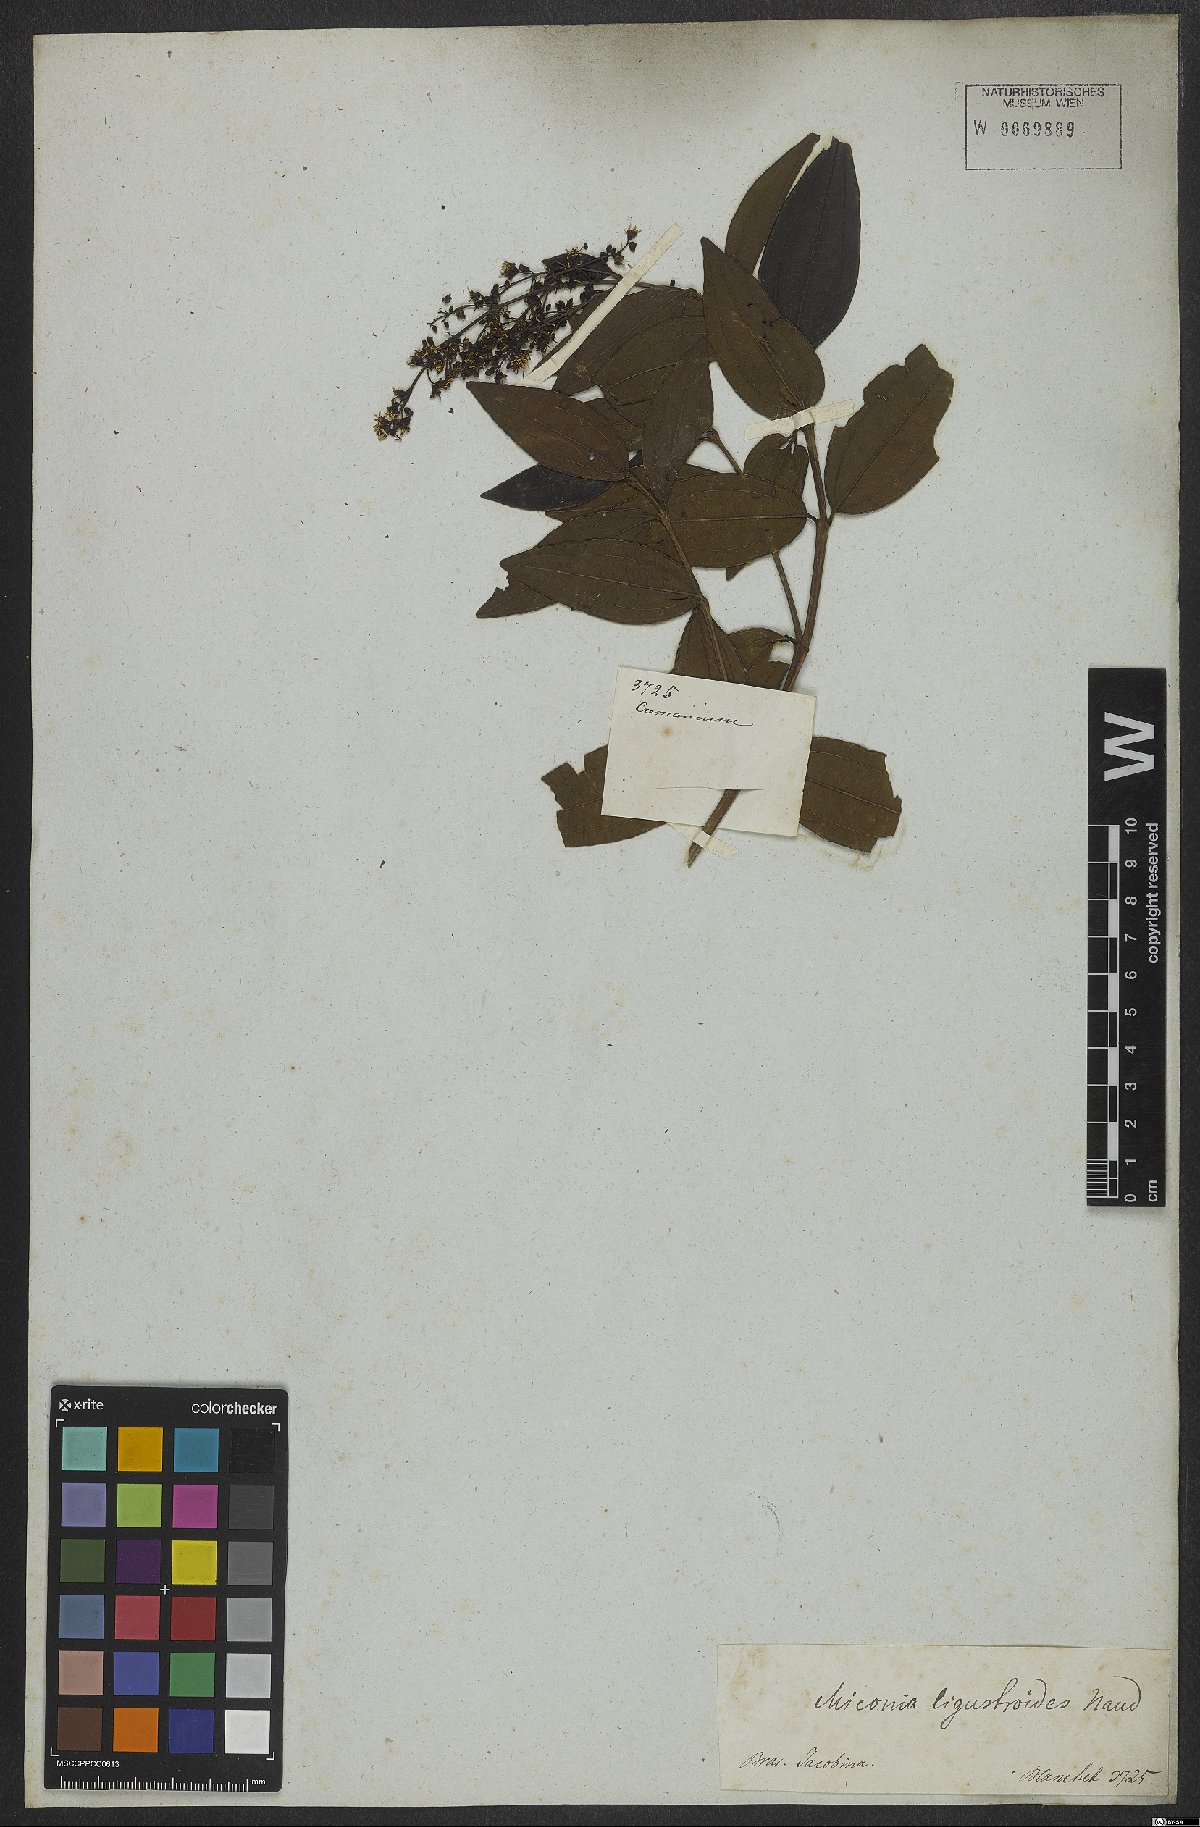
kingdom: Plantae
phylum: Tracheophyta
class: Magnoliopsida
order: Myrtales
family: Melastomataceae
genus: Miconia
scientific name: Miconia ligustroides
